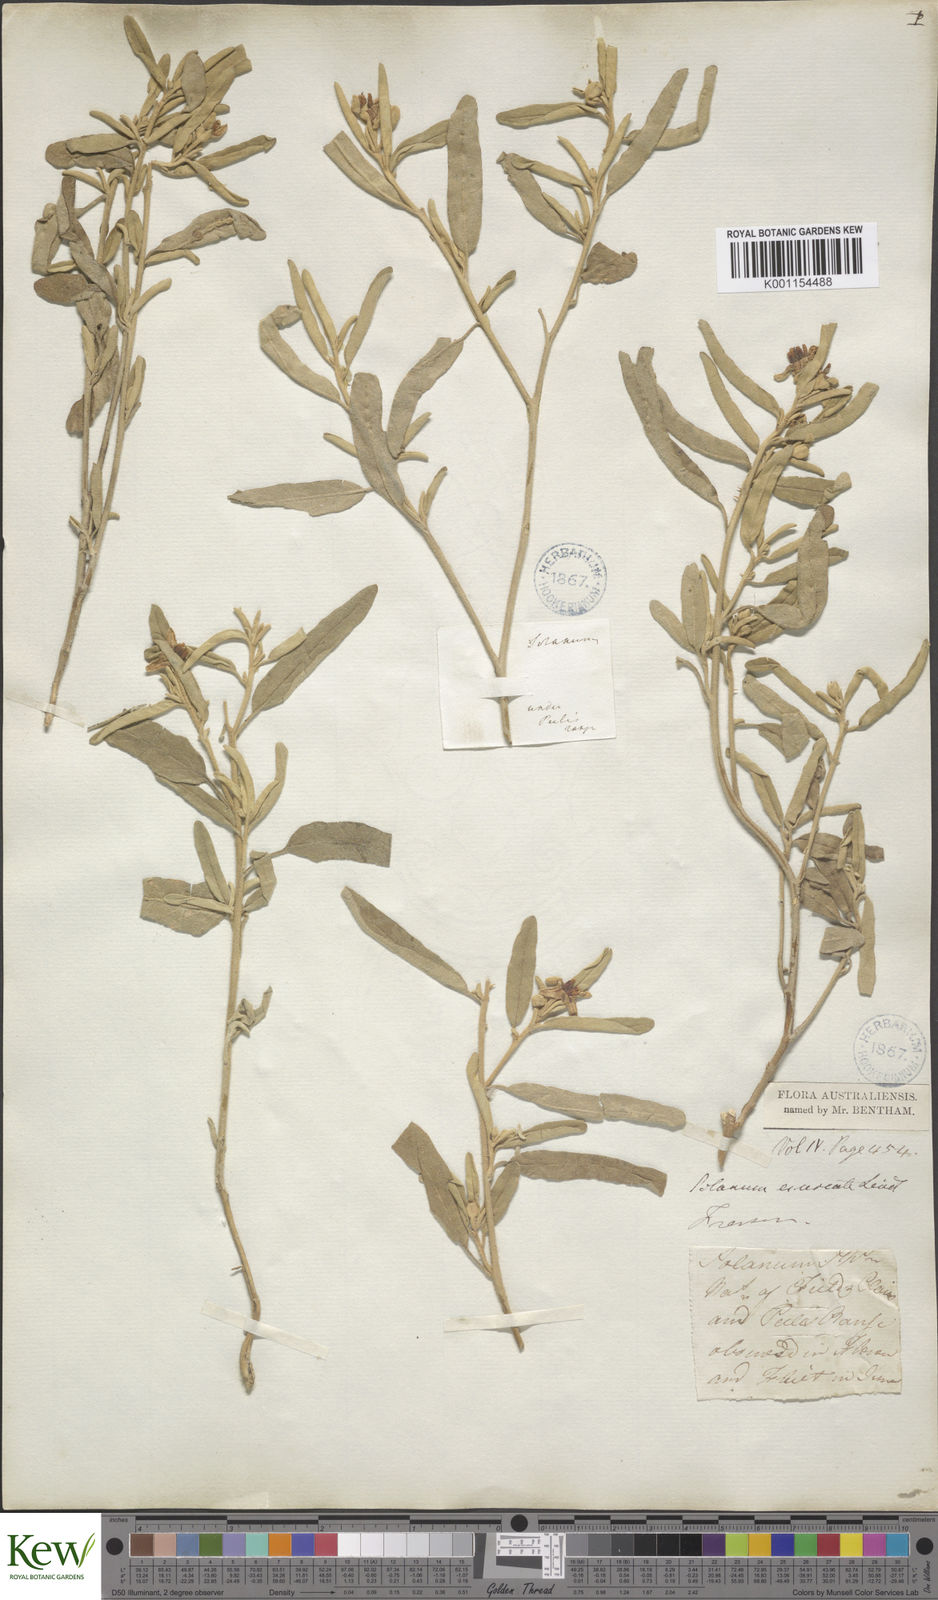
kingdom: Plantae
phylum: Tracheophyta
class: Magnoliopsida
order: Solanales
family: Solanaceae
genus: Solanum
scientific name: Solanum coactiliferum
